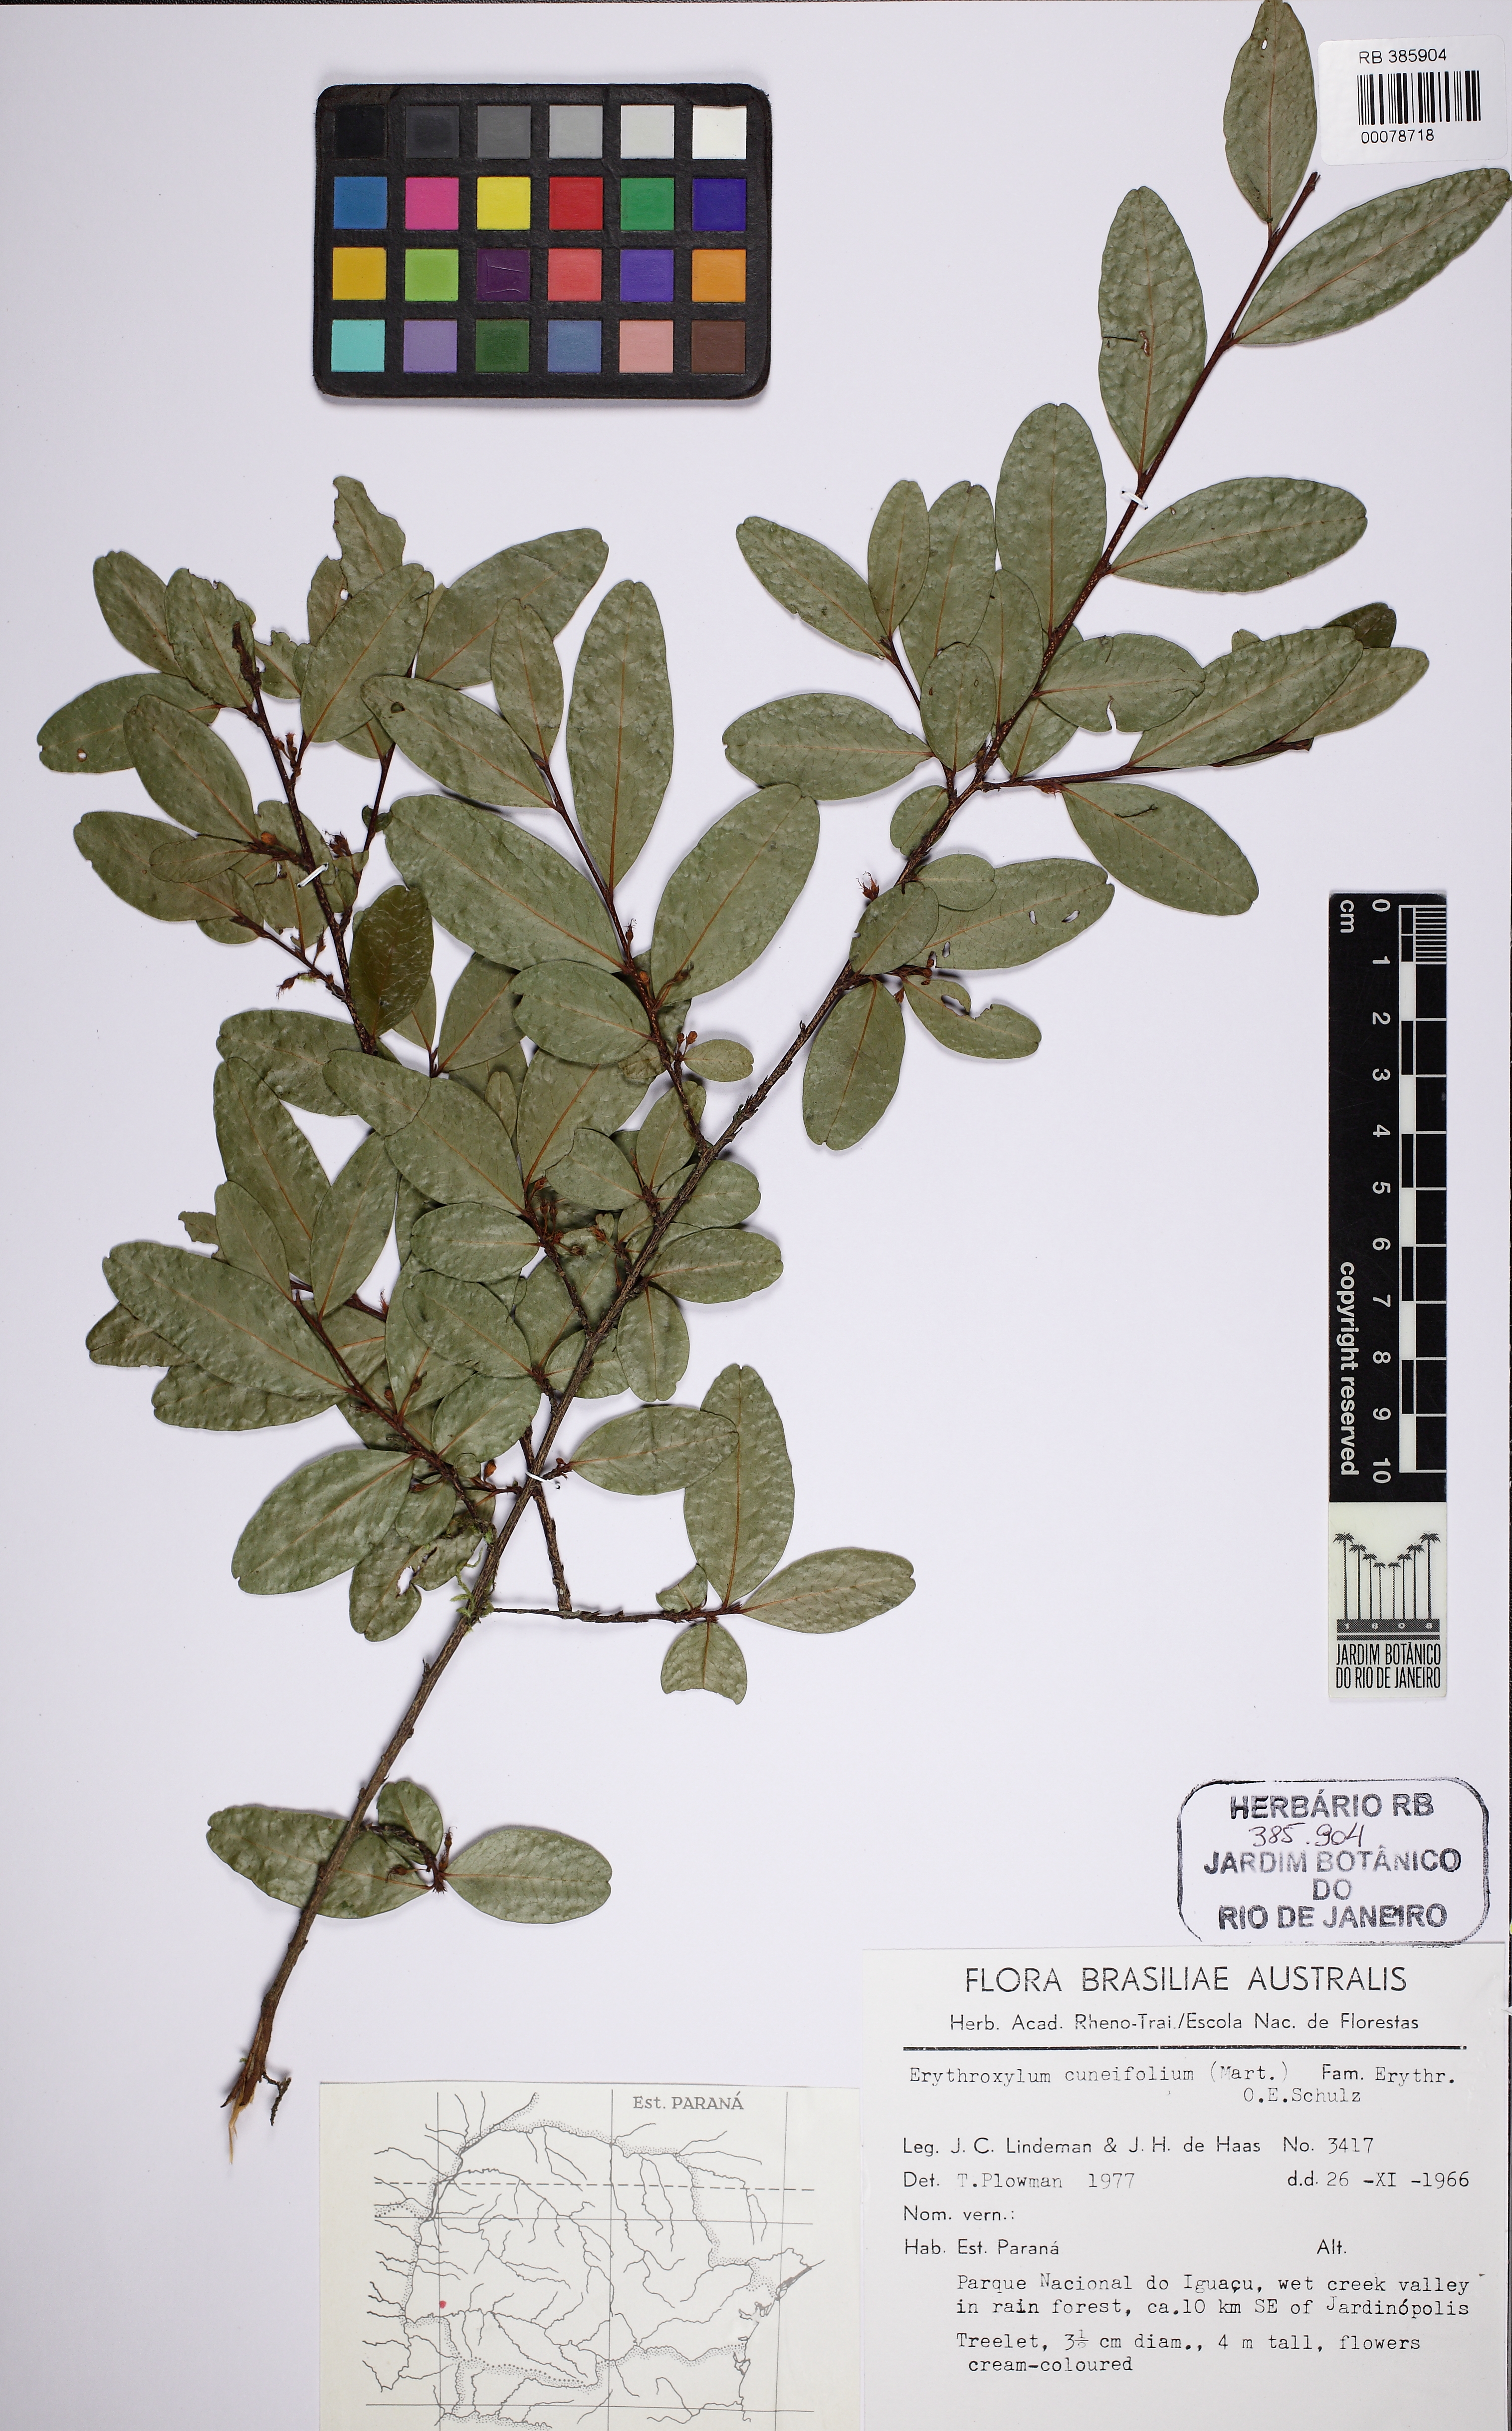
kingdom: Plantae
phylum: Tracheophyta
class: Magnoliopsida
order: Malpighiales
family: Erythroxylaceae
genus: Erythroxylum
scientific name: Erythroxylum cuneifolium
